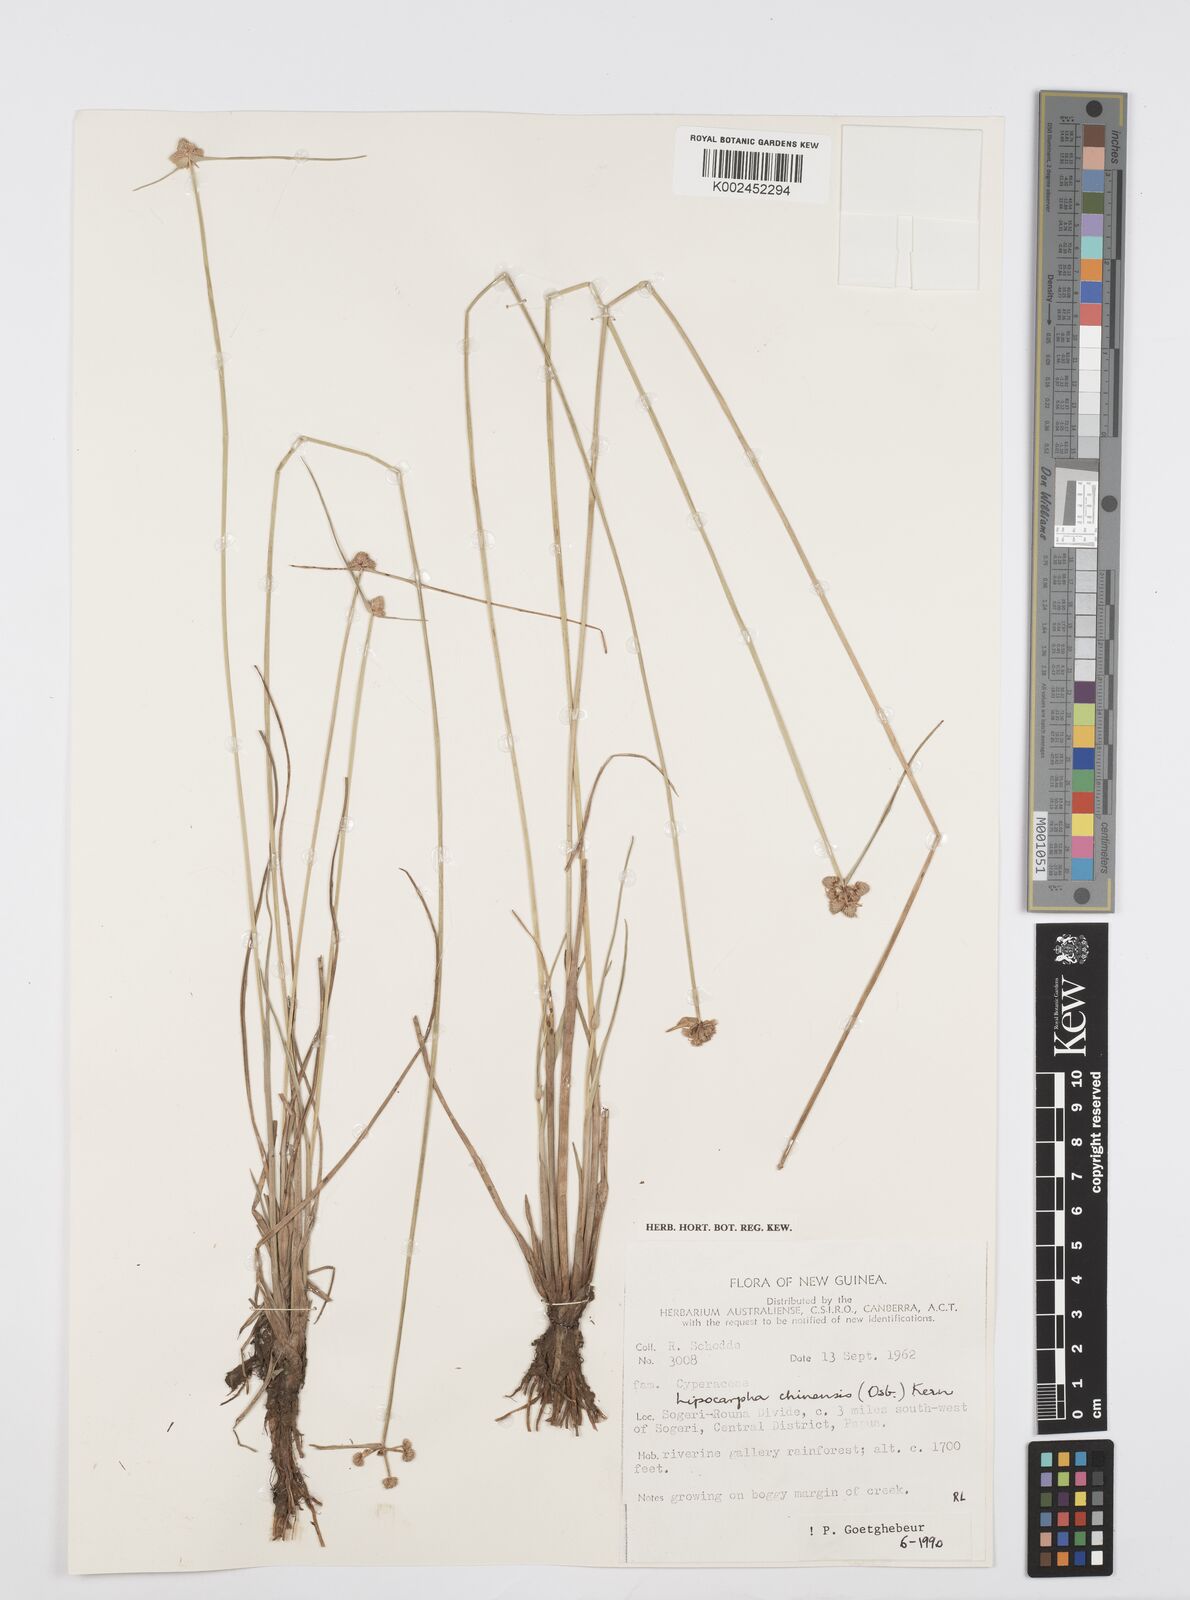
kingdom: Plantae
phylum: Tracheophyta
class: Liliopsida
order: Poales
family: Cyperaceae
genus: Cyperus
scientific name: Cyperus albescens
